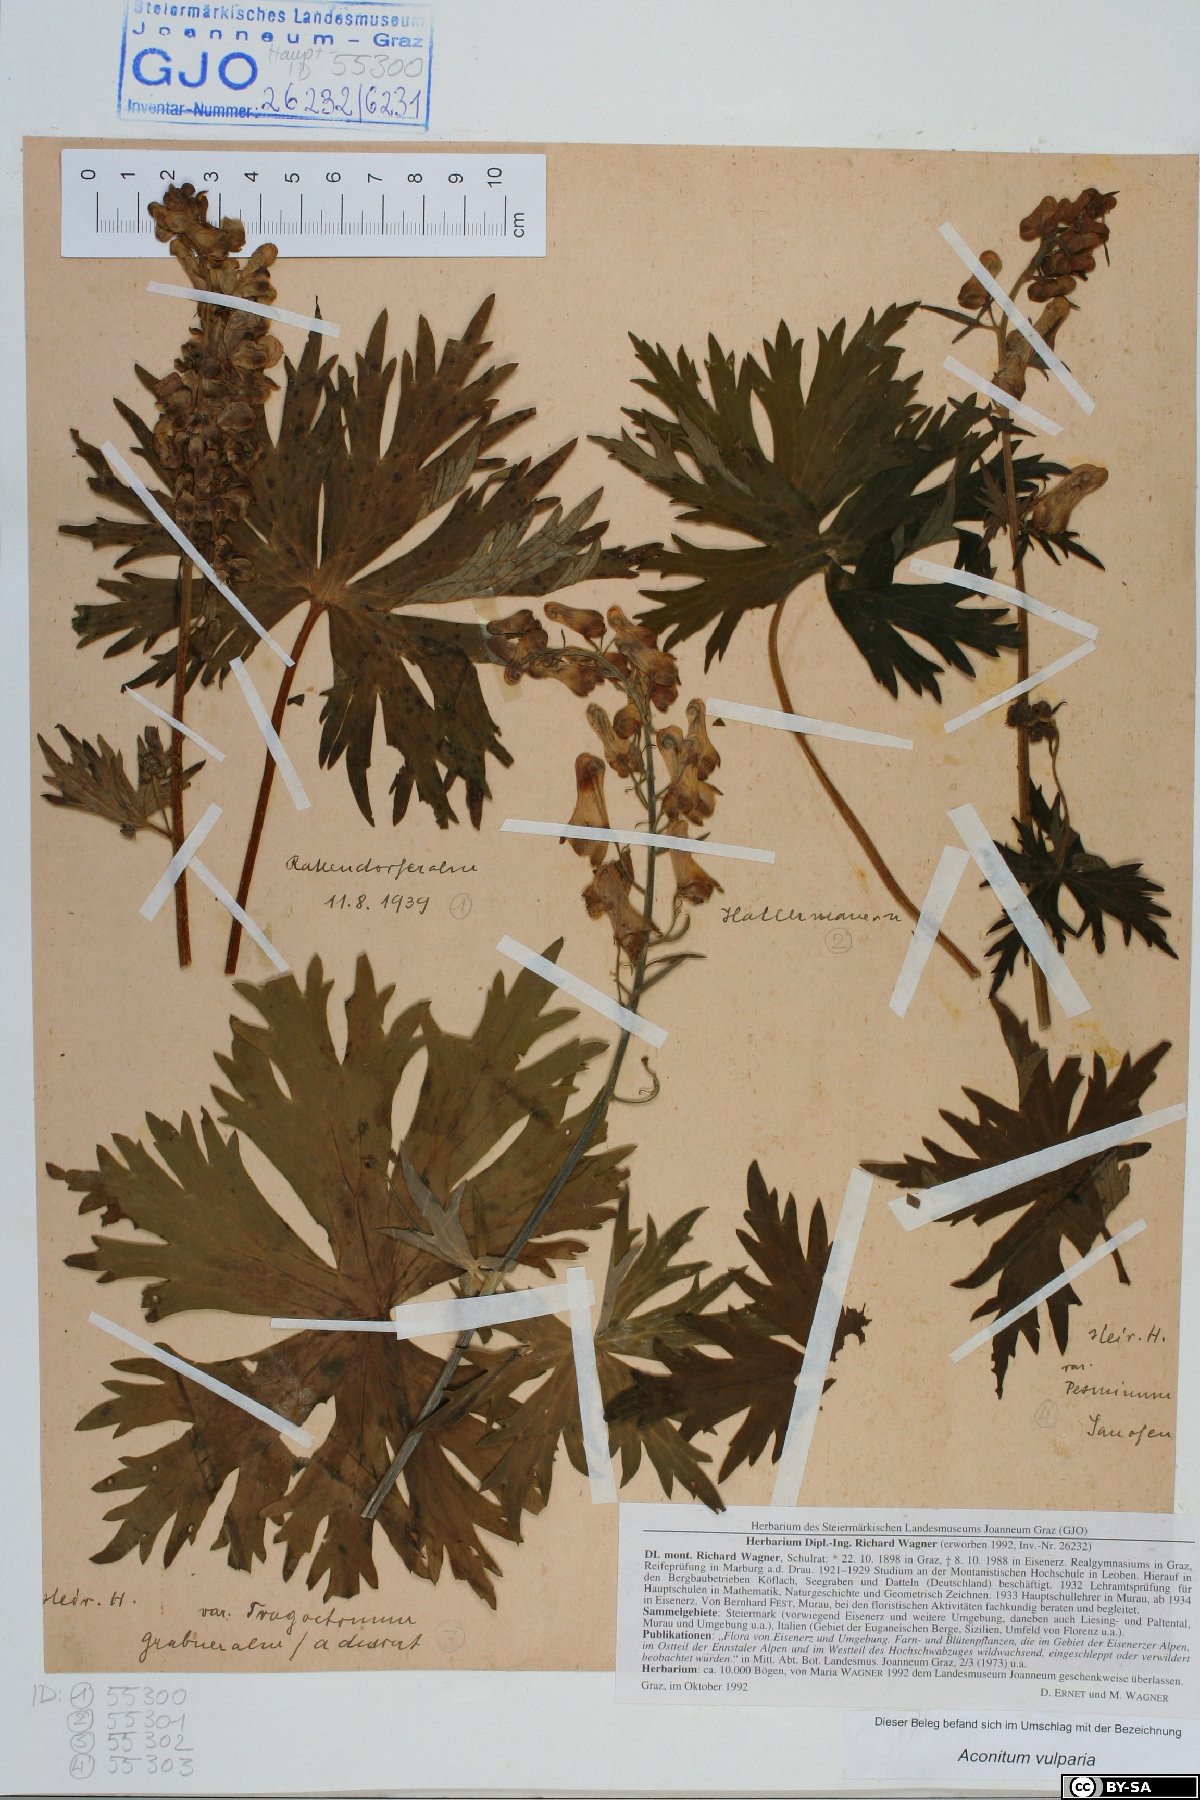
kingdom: Plantae
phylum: Tracheophyta
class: Magnoliopsida
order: Ranunculales
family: Ranunculaceae
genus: Aconitum
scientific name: Aconitum lycoctonum
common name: Wolf's-bane
